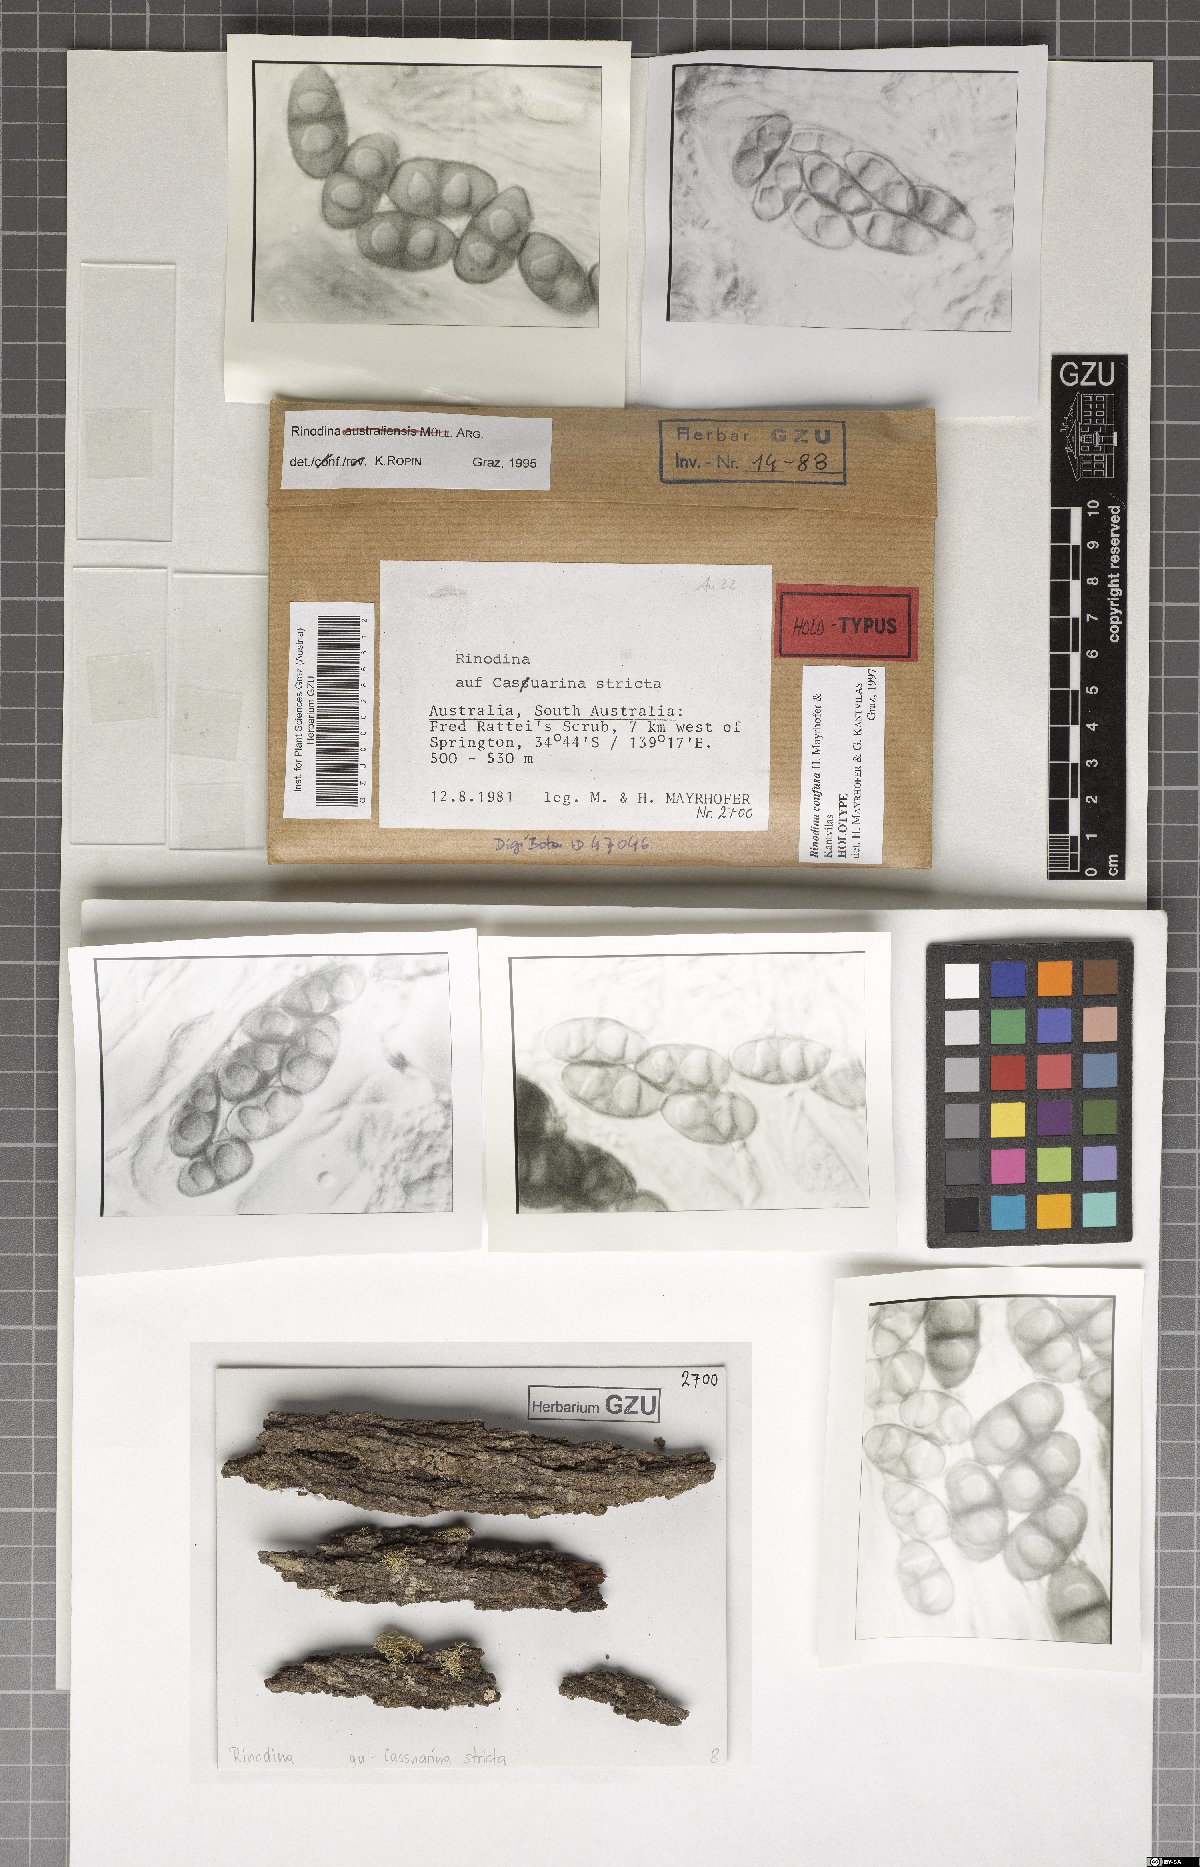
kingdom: Fungi
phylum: Ascomycota
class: Lecanoromycetes
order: Caliciales
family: Physciaceae
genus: Rinodina
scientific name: Rinodina confusa
